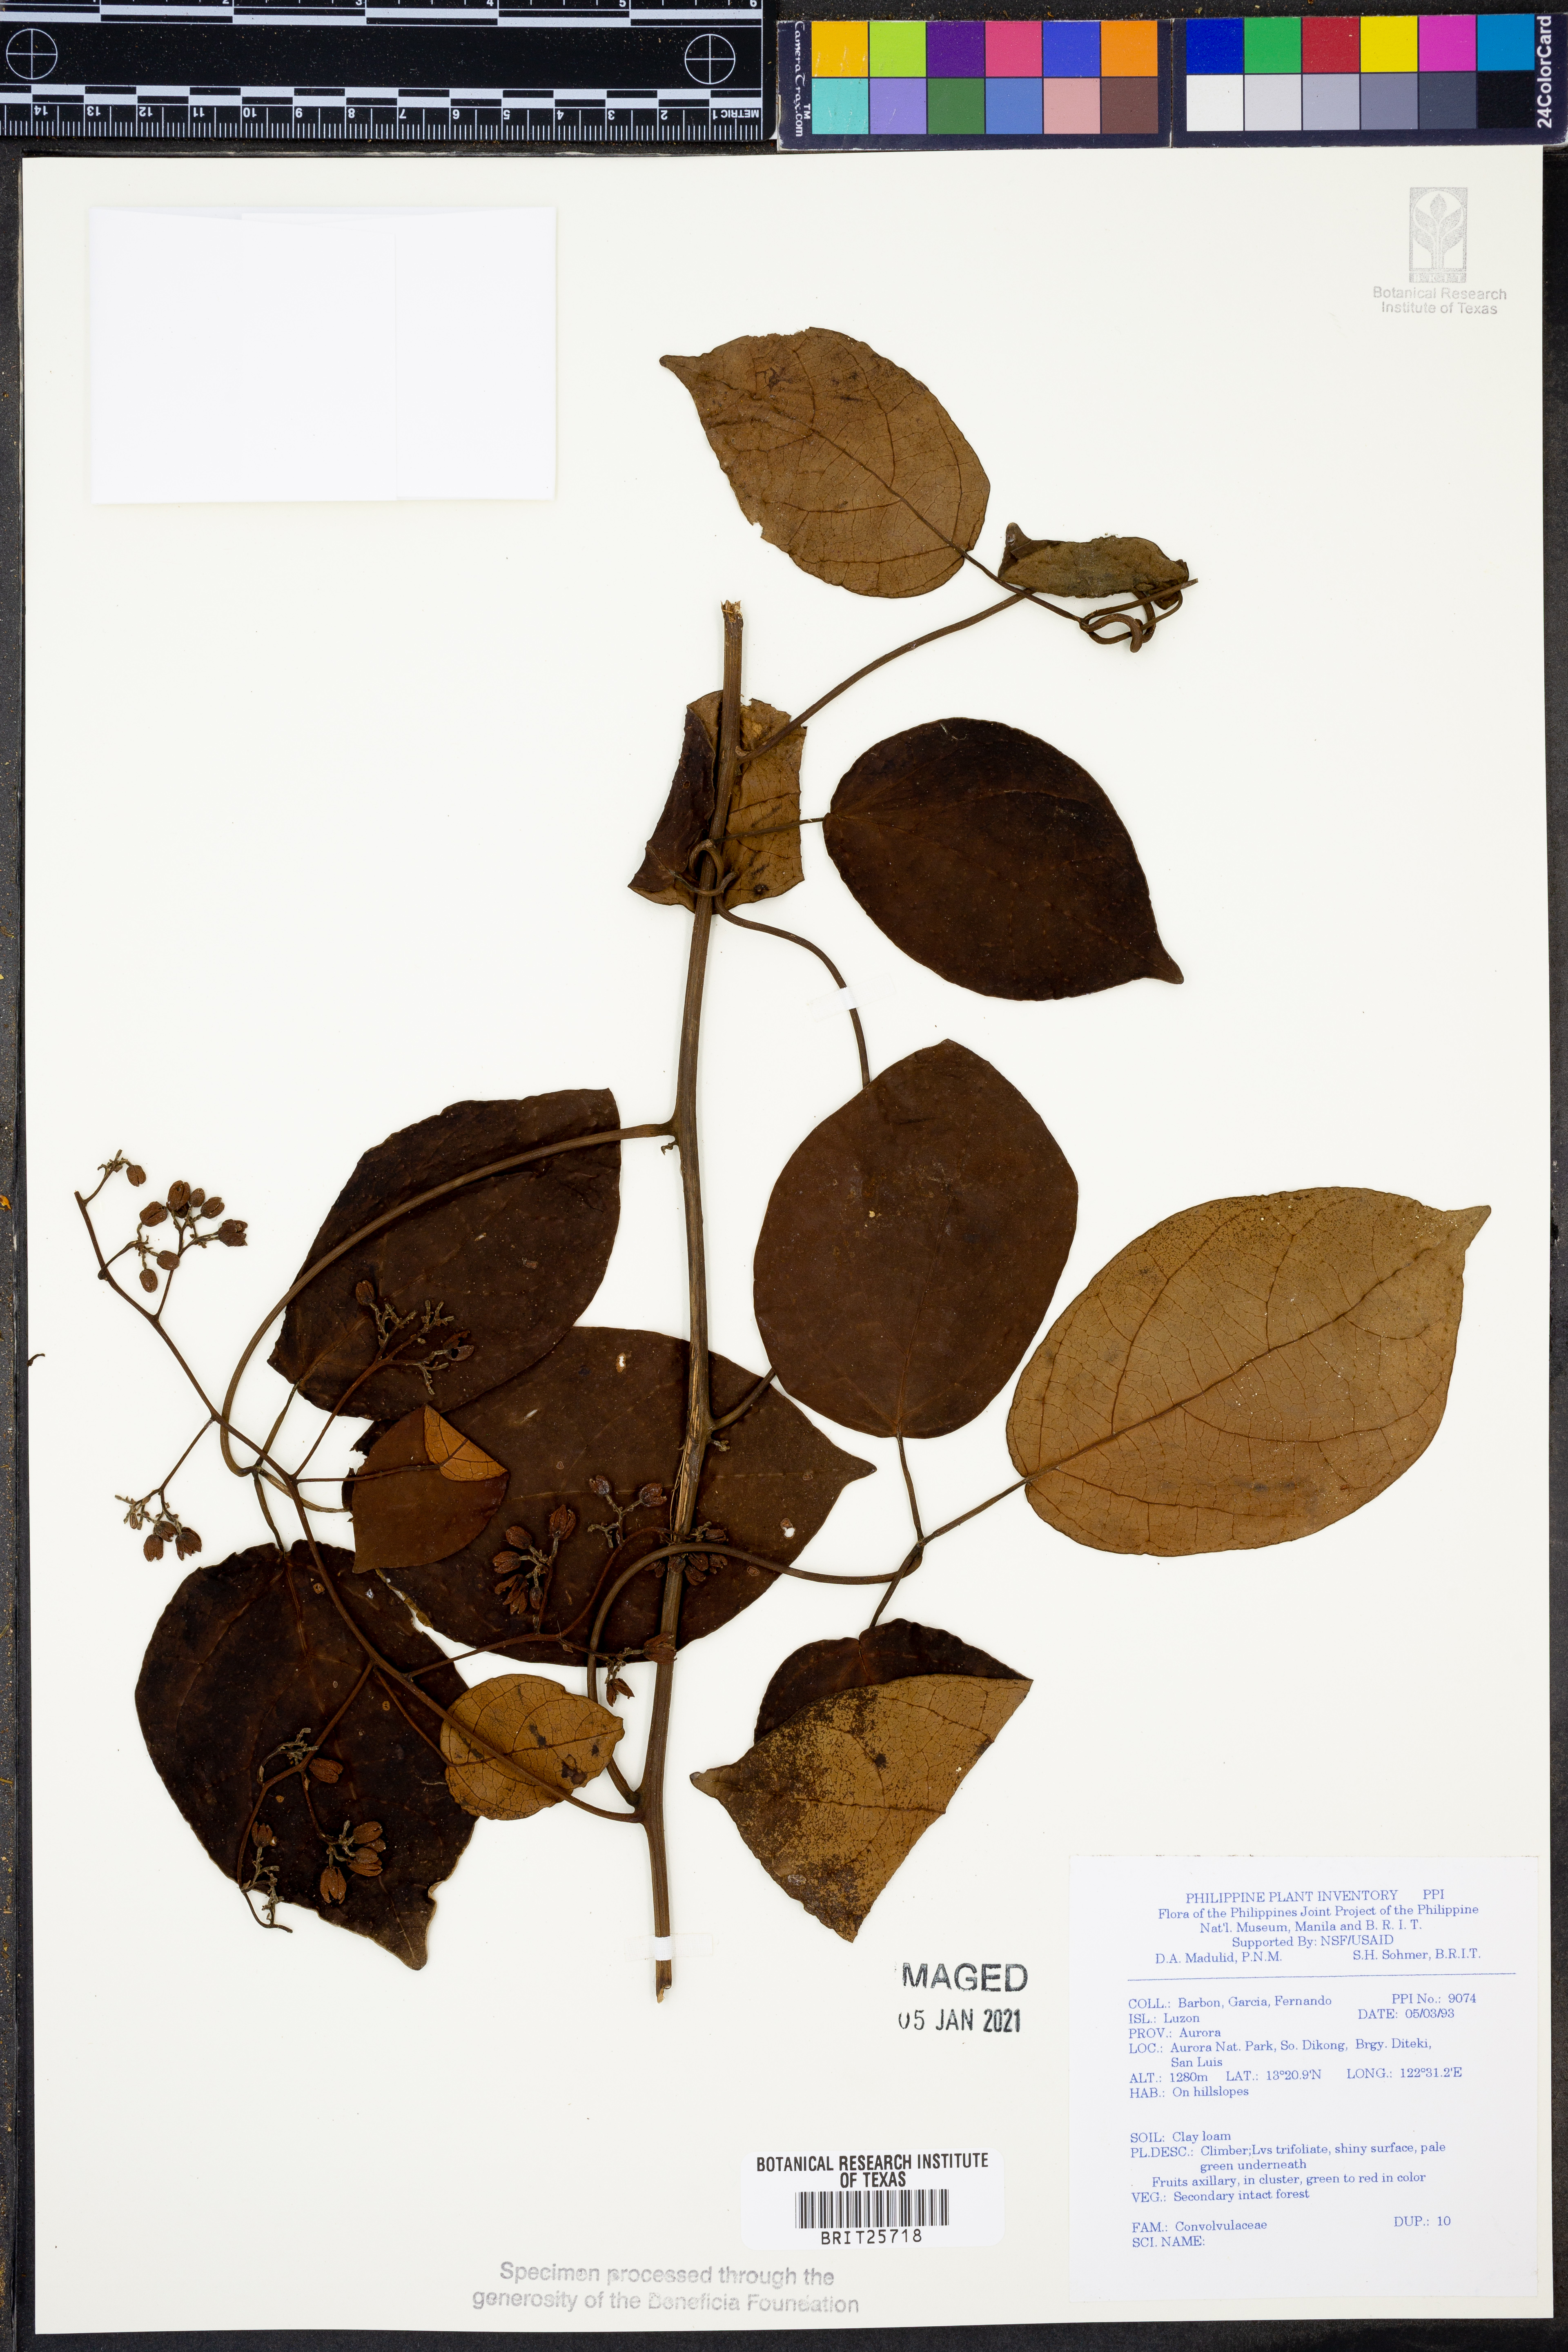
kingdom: Plantae
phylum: Tracheophyta
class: Magnoliopsida
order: Solanales
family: Convolvulaceae
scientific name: Convolvulaceae
